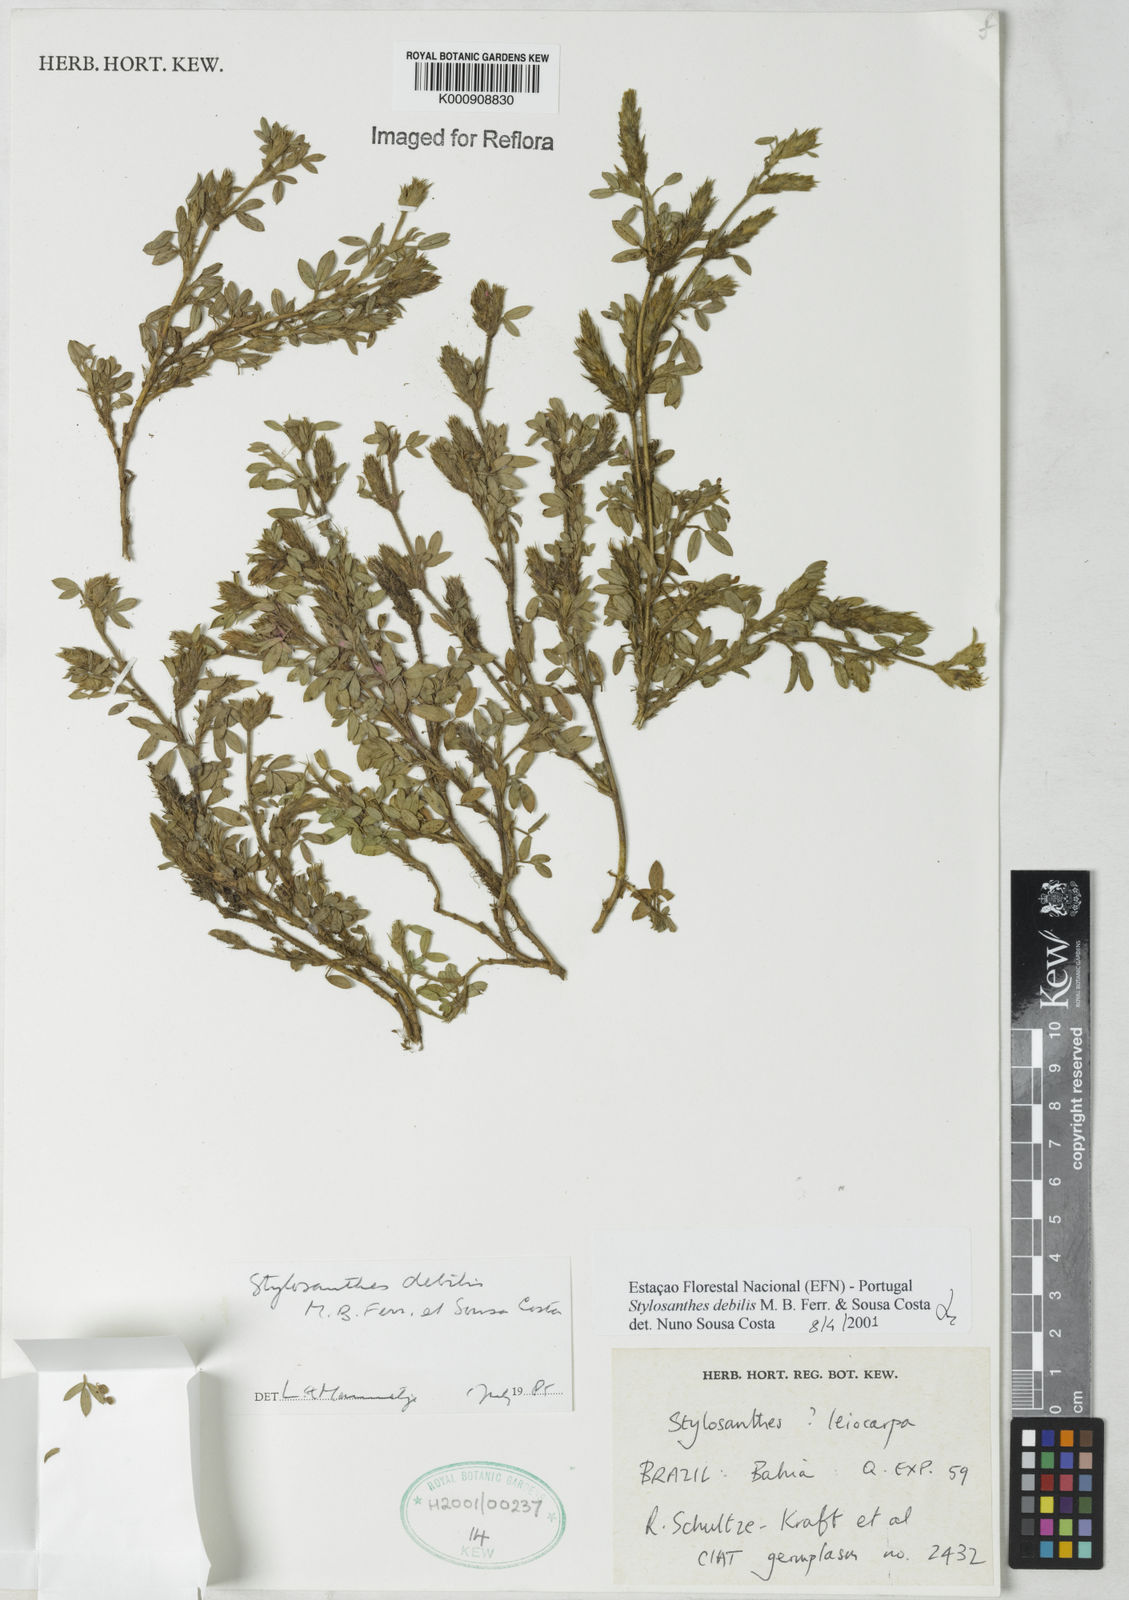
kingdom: Plantae
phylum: Tracheophyta
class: Magnoliopsida
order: Fabales
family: Fabaceae
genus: Stylosanthes
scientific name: Stylosanthes viscosa
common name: Viscid pencil-flower
